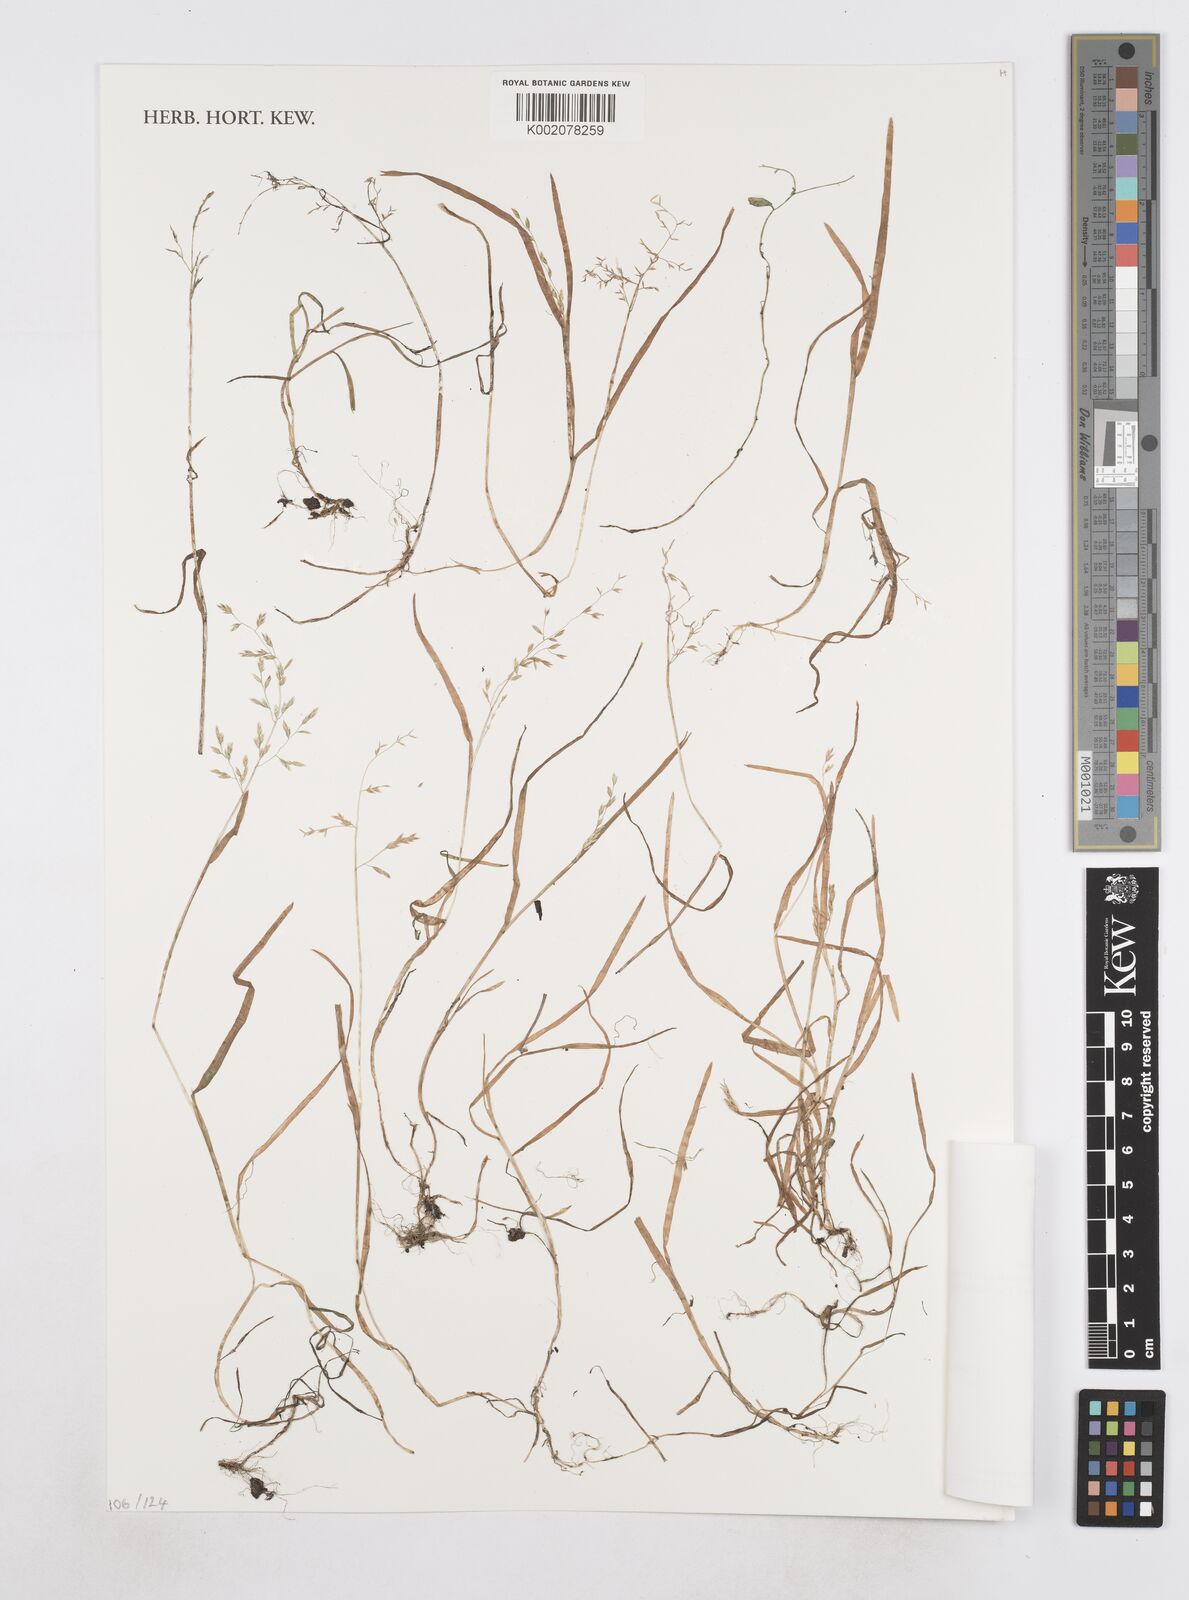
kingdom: Plantae
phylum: Tracheophyta
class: Liliopsida
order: Poales
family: Poaceae
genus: Poa
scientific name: Poa annua
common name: Annual bluegrass
